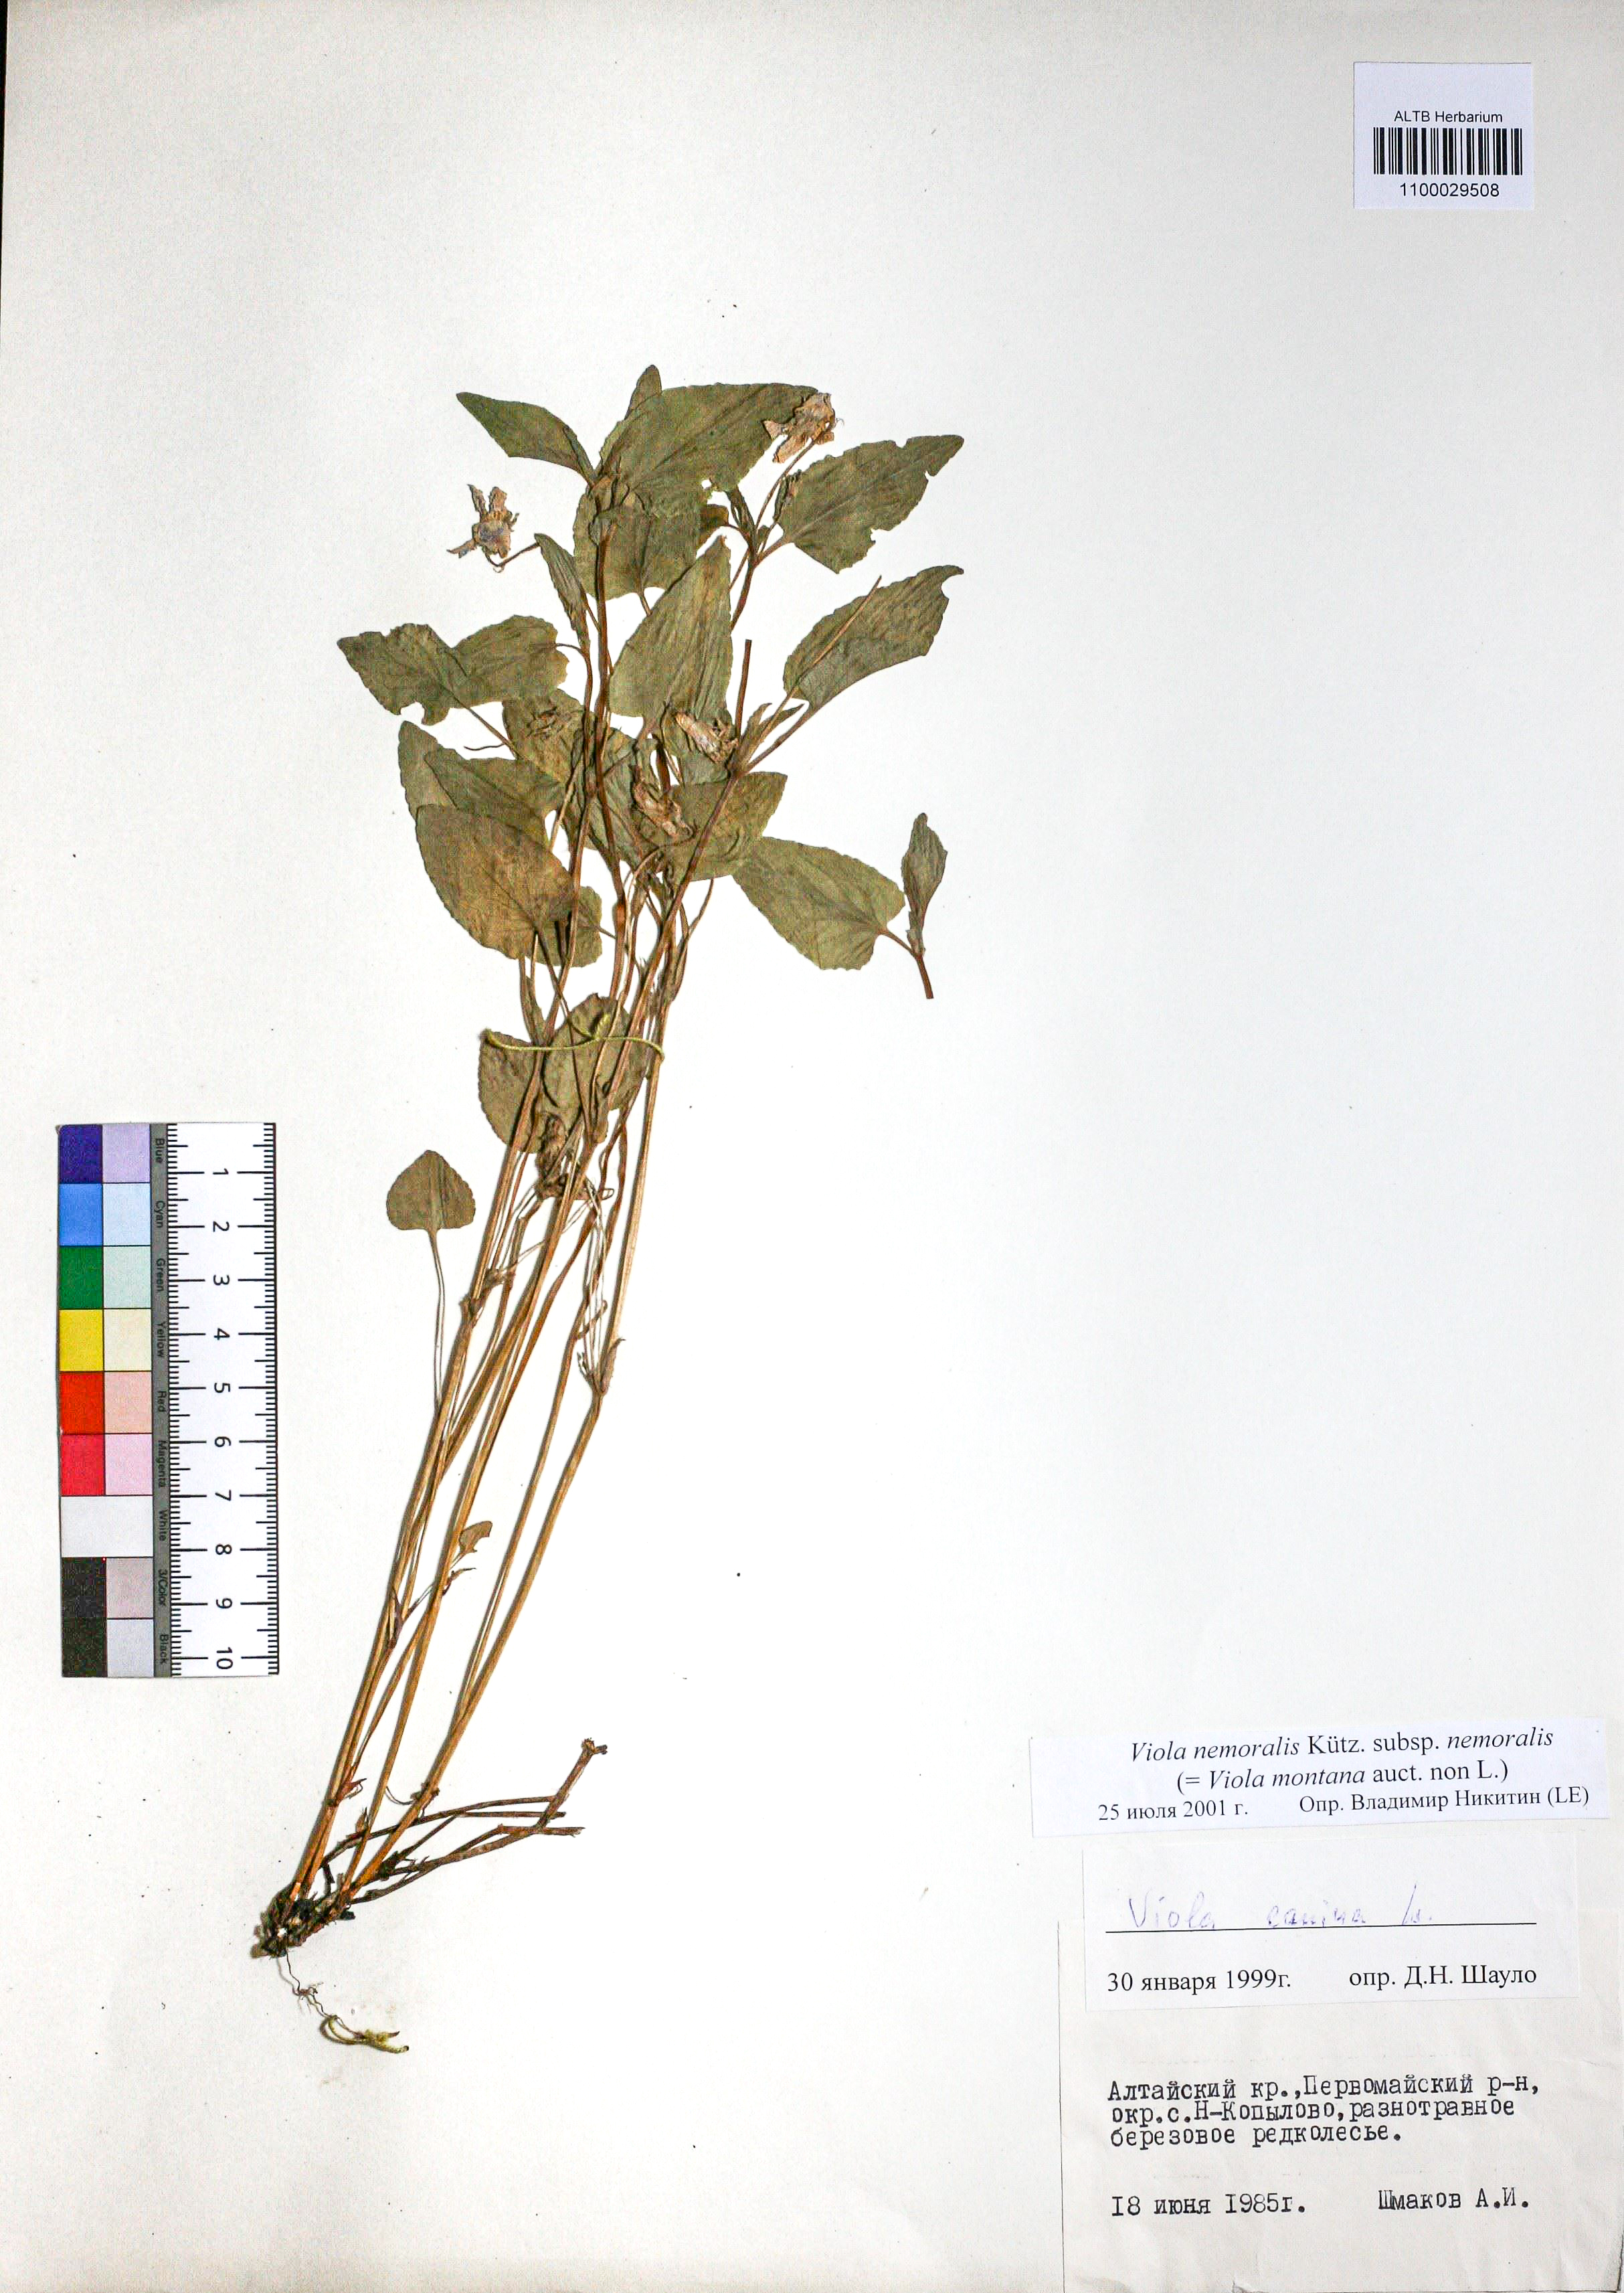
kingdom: Plantae
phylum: Tracheophyta
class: Magnoliopsida
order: Malpighiales
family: Violaceae
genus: Viola
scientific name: Viola ruppii
